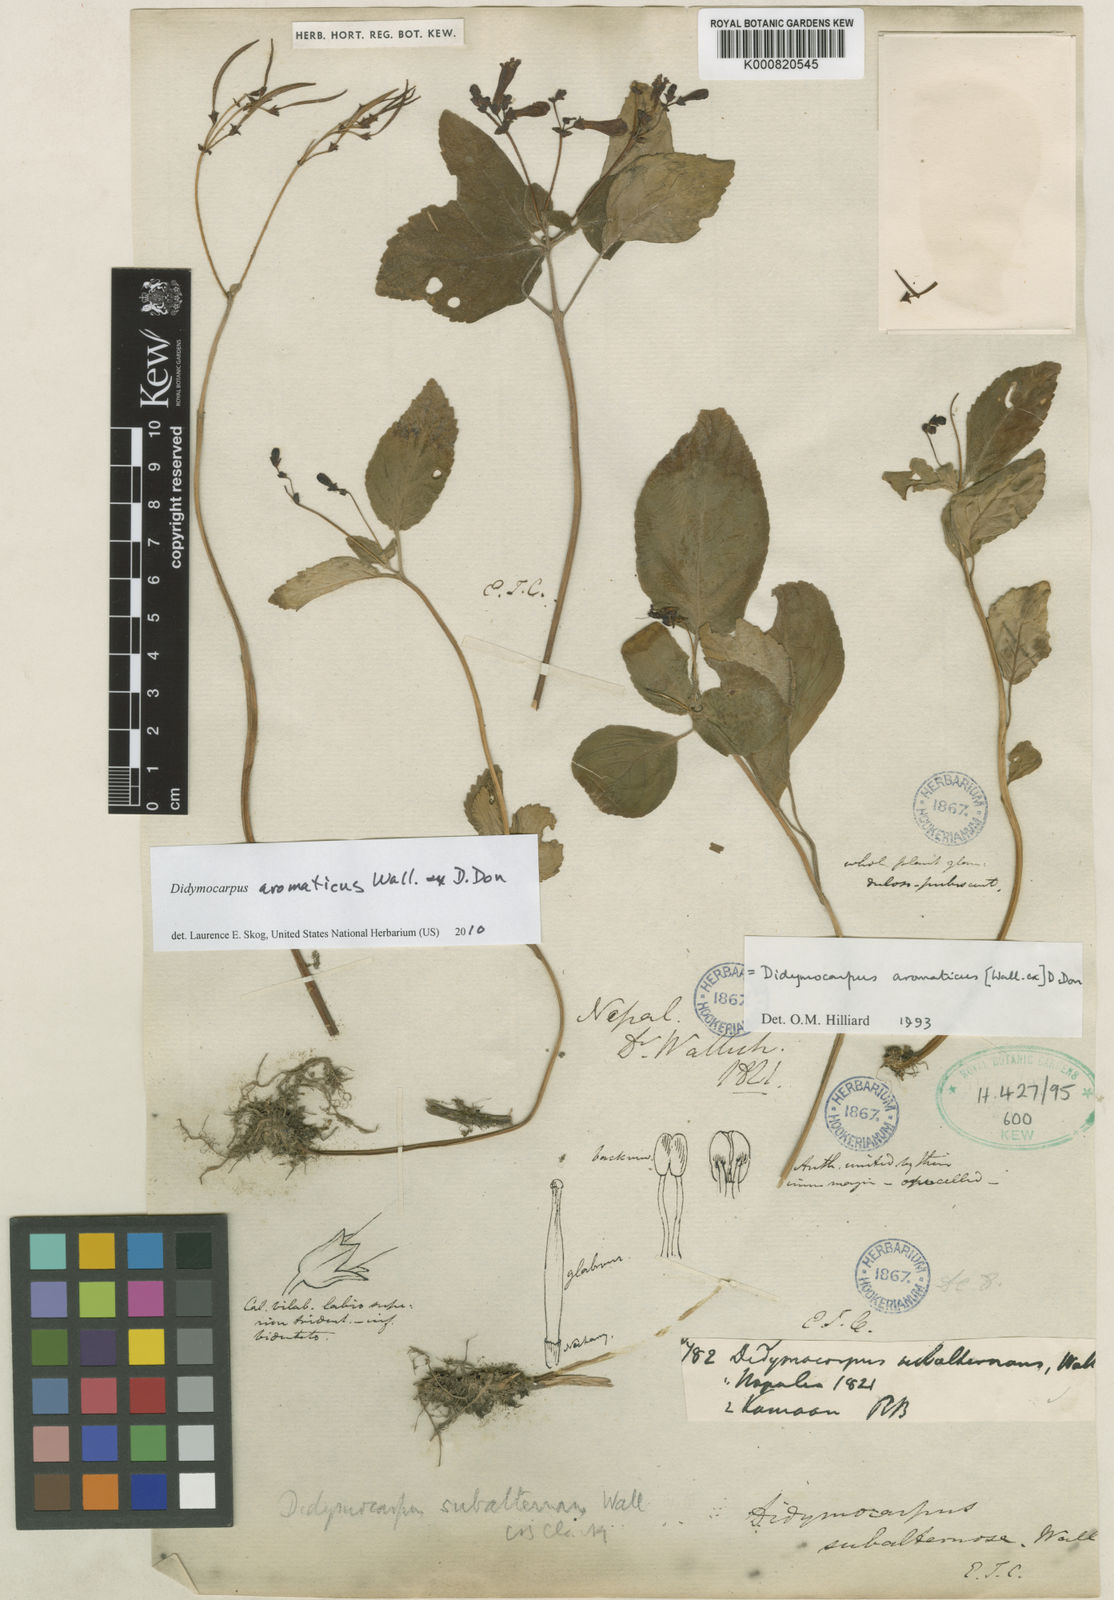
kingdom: Plantae
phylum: Tracheophyta
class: Magnoliopsida
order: Lamiales
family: Gesneriaceae
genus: Didymocarpus
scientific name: Didymocarpus aromaticus
